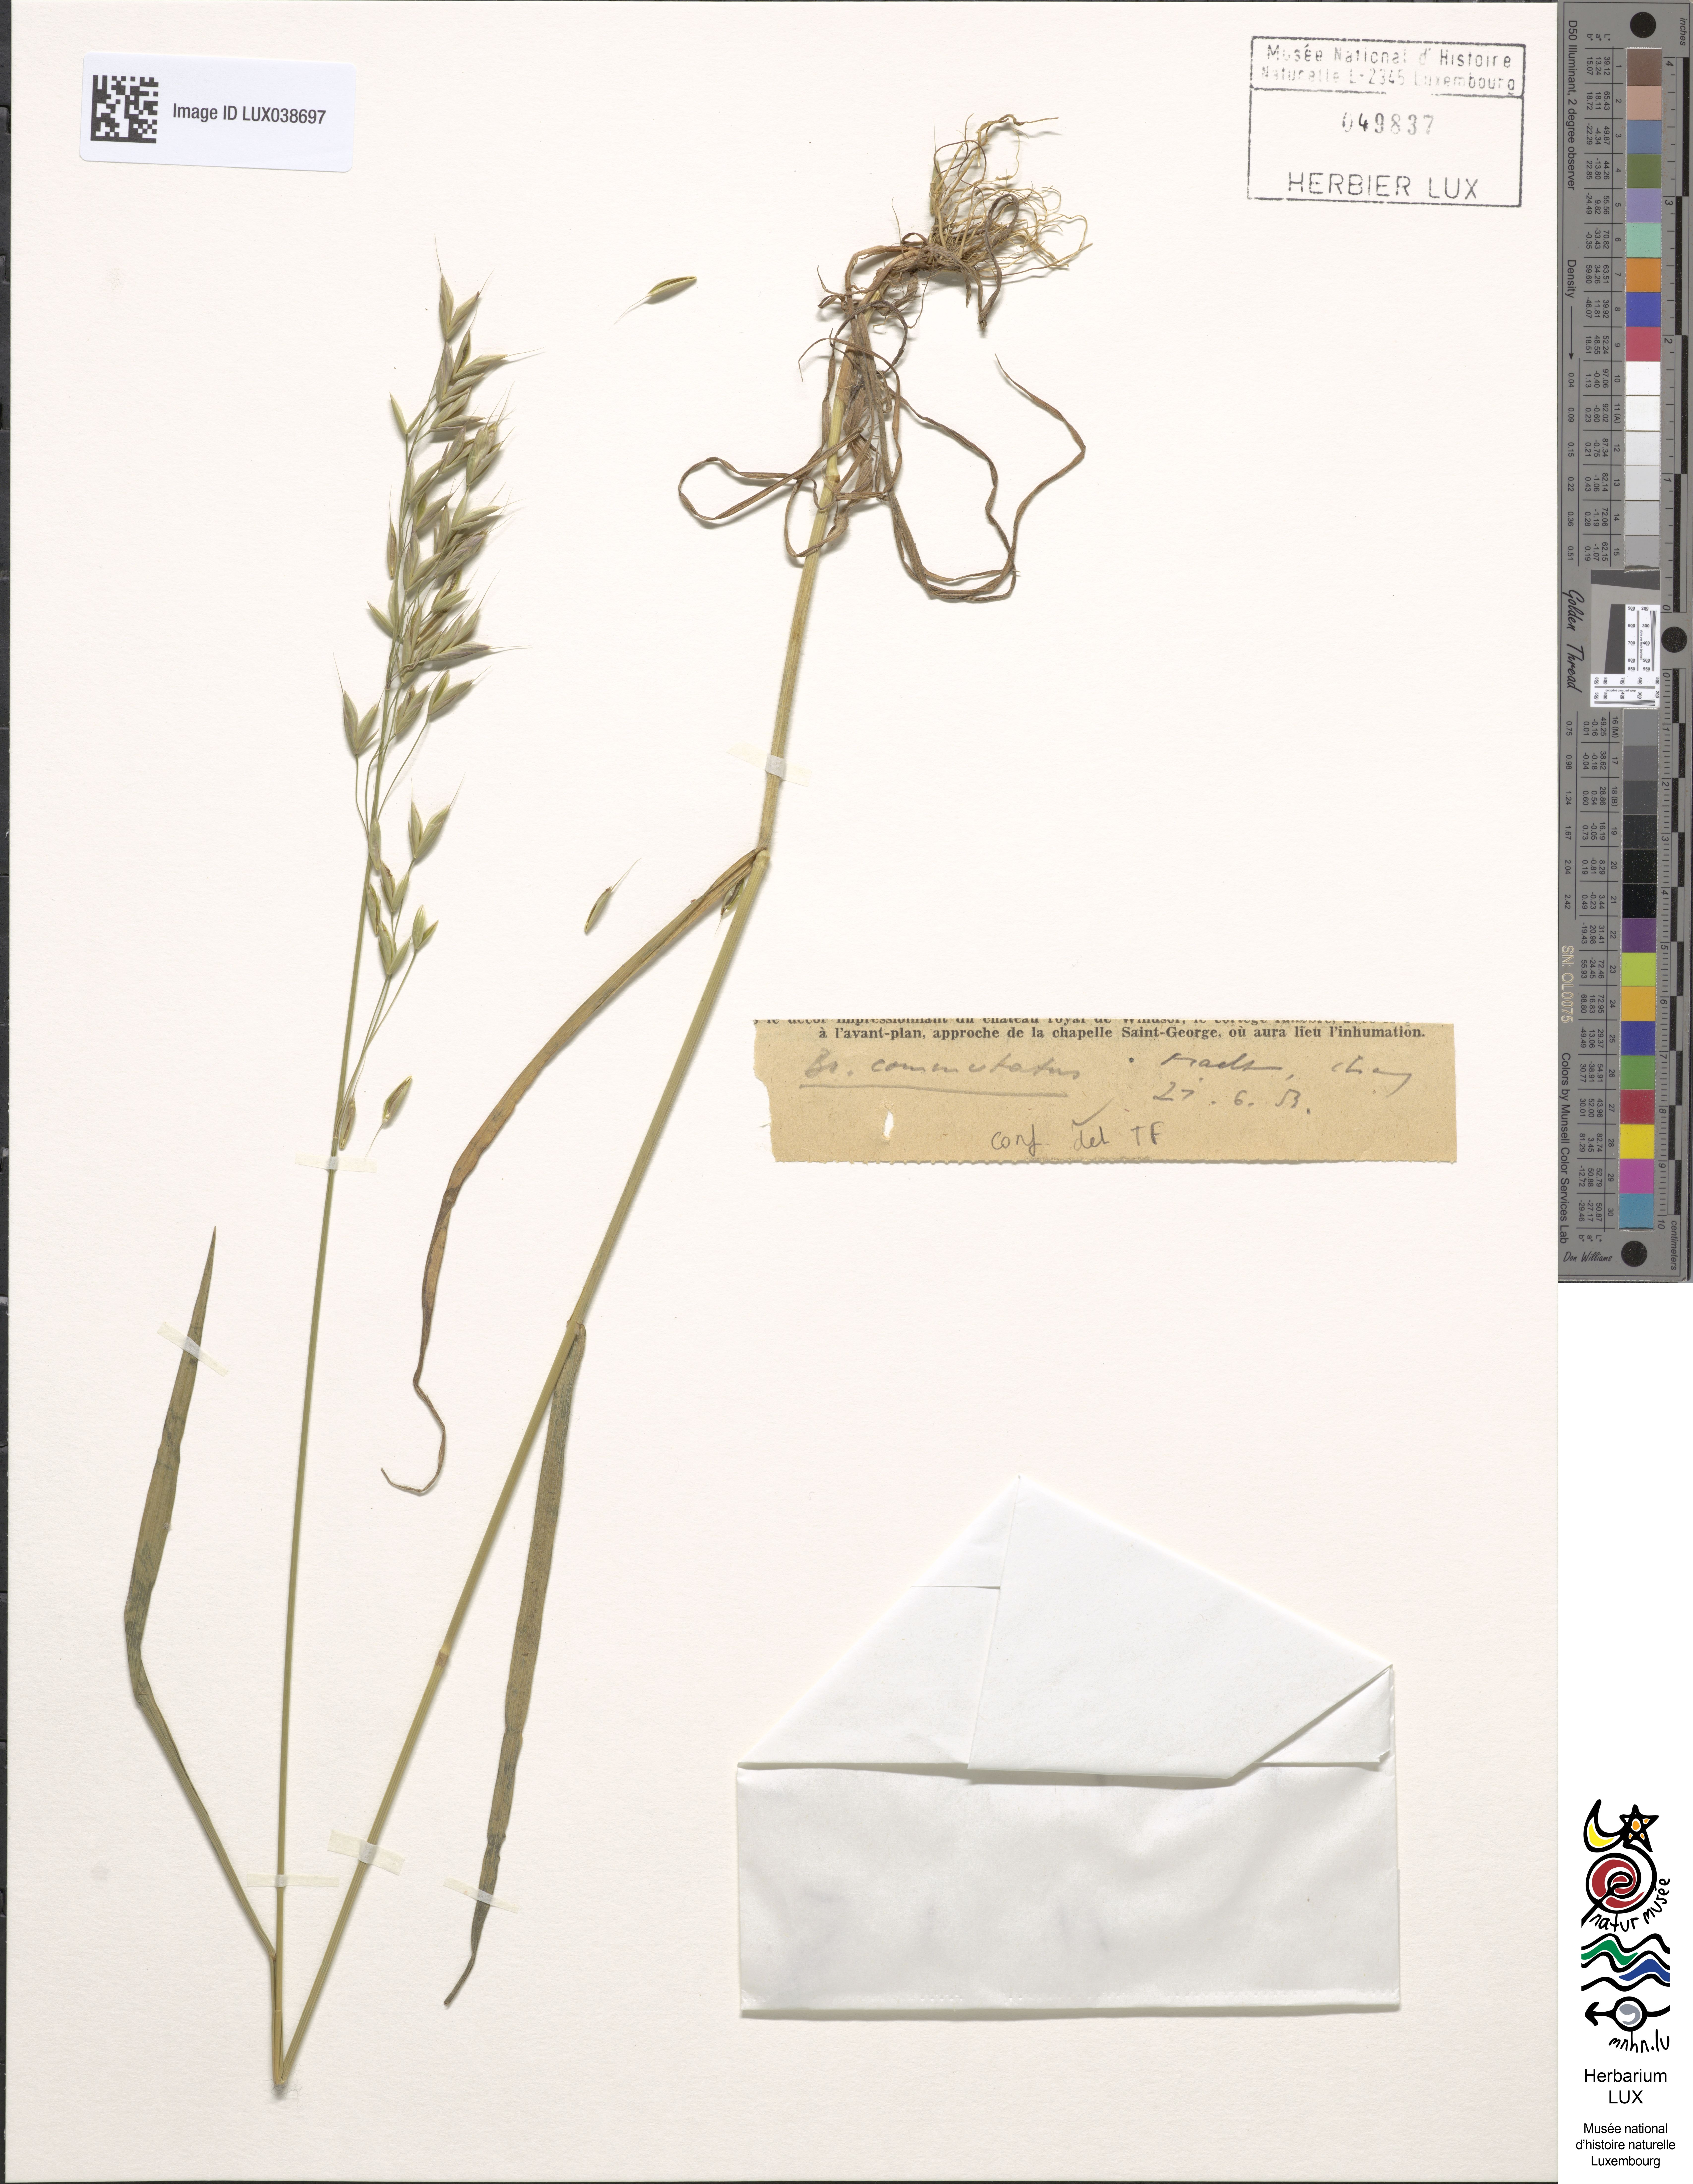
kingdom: Plantae
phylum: Tracheophyta
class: Liliopsida
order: Poales
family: Poaceae
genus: Bromus
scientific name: Bromus commutatus
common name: Meadow brome
